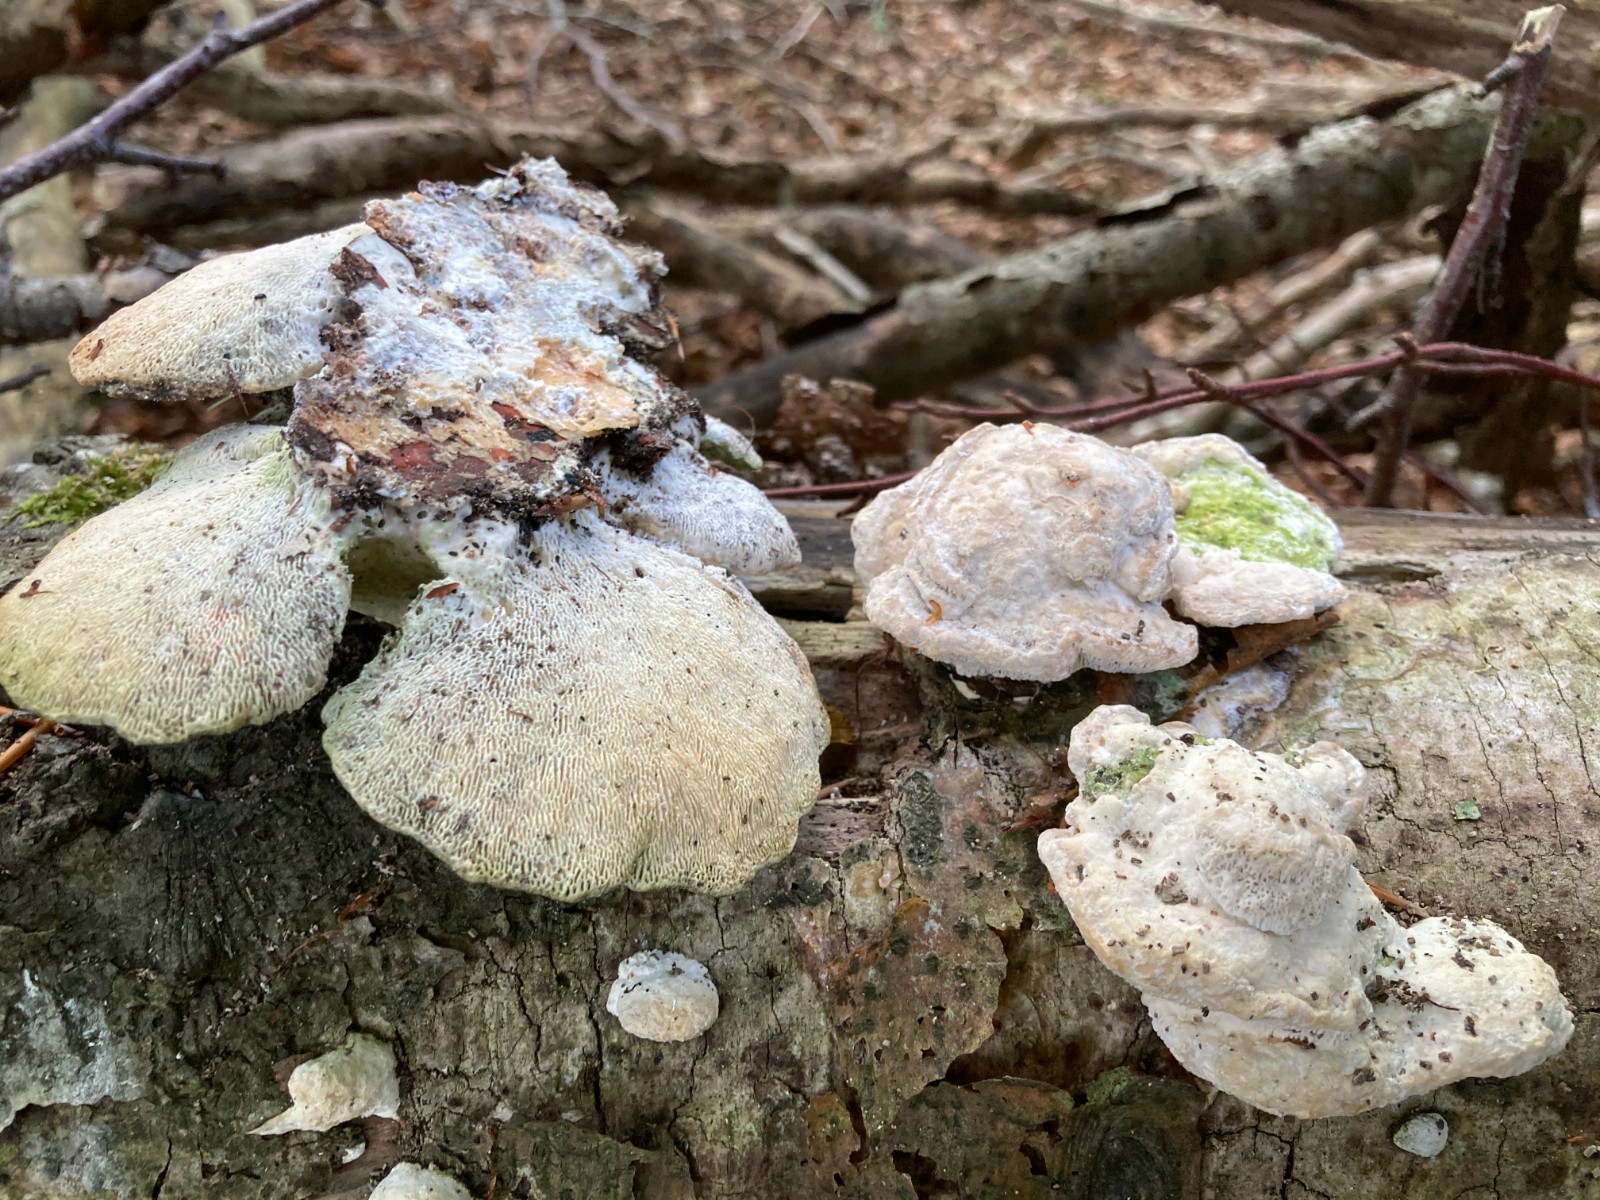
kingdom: Fungi
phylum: Basidiomycota
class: Agaricomycetes
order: Polyporales
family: Polyporaceae
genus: Trametes
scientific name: Trametes gibbosa
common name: puklet læderporesvamp
